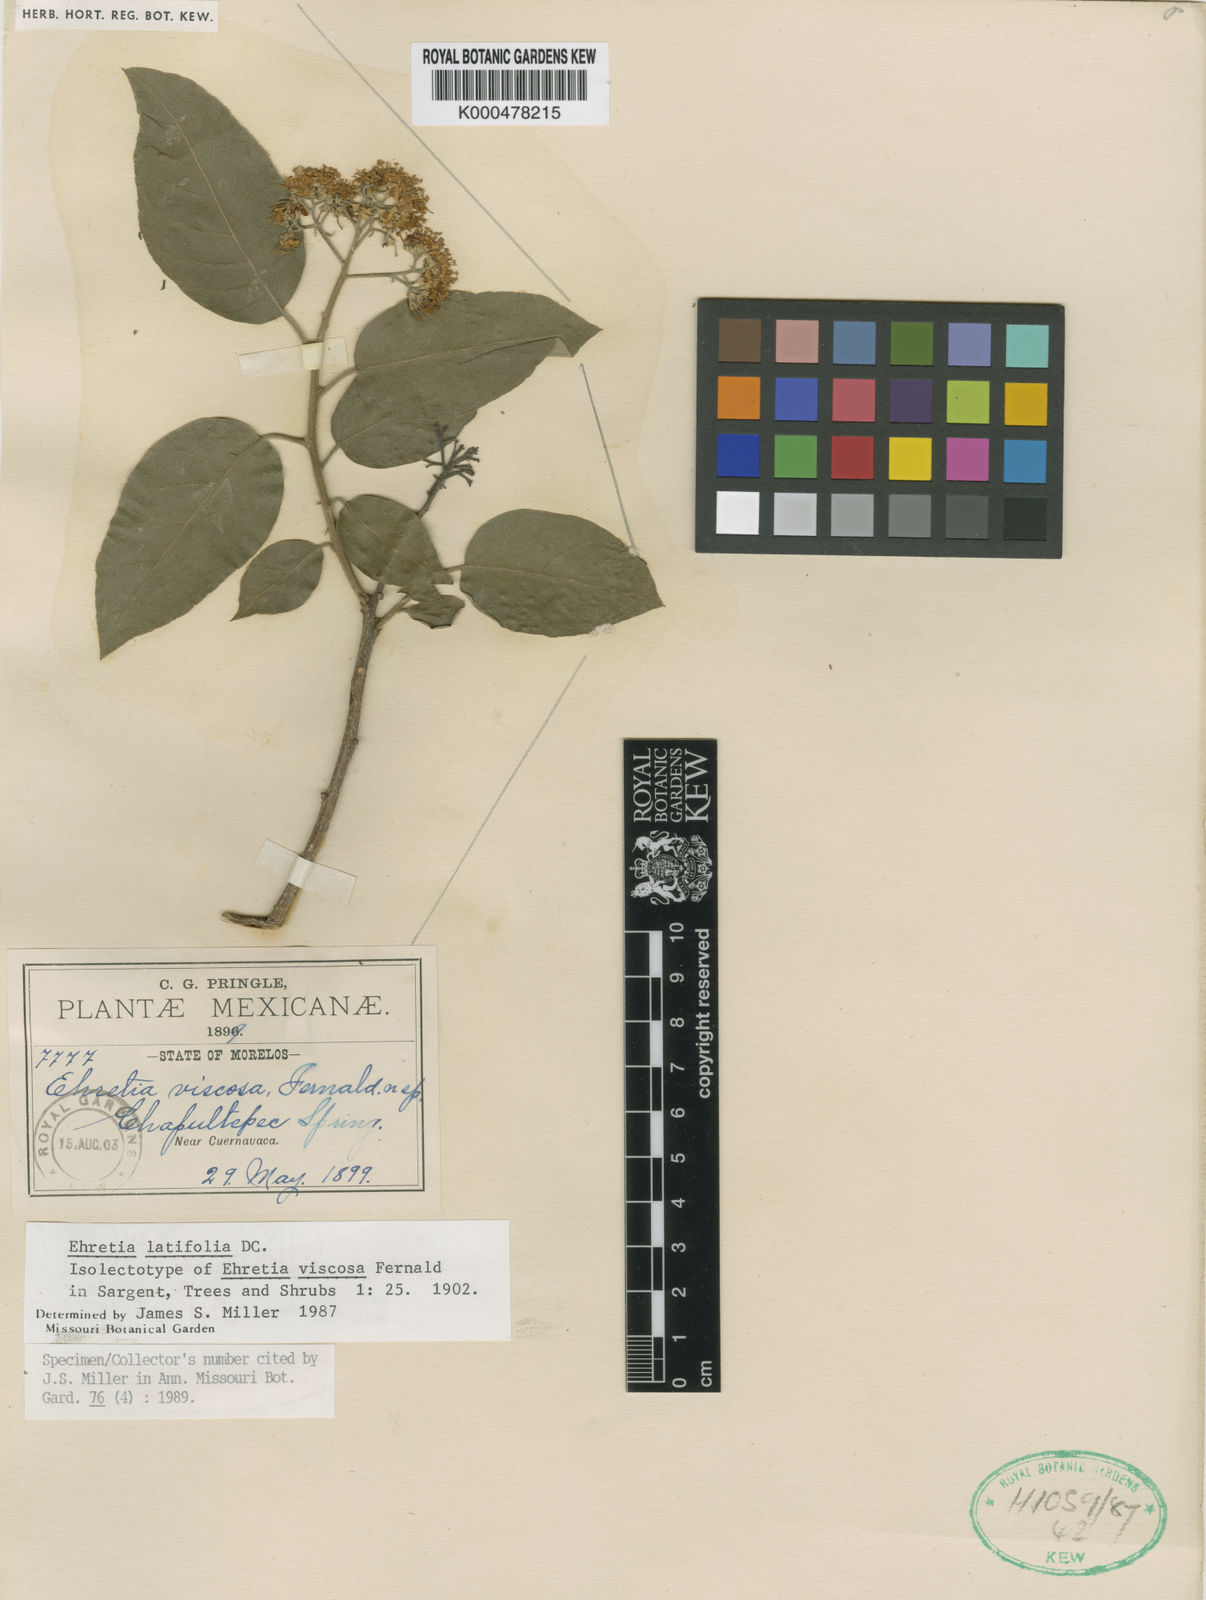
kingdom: Plantae
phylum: Tracheophyta
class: Magnoliopsida
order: Boraginales
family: Ehretiaceae
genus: Ehretia
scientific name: Ehretia latifolia
